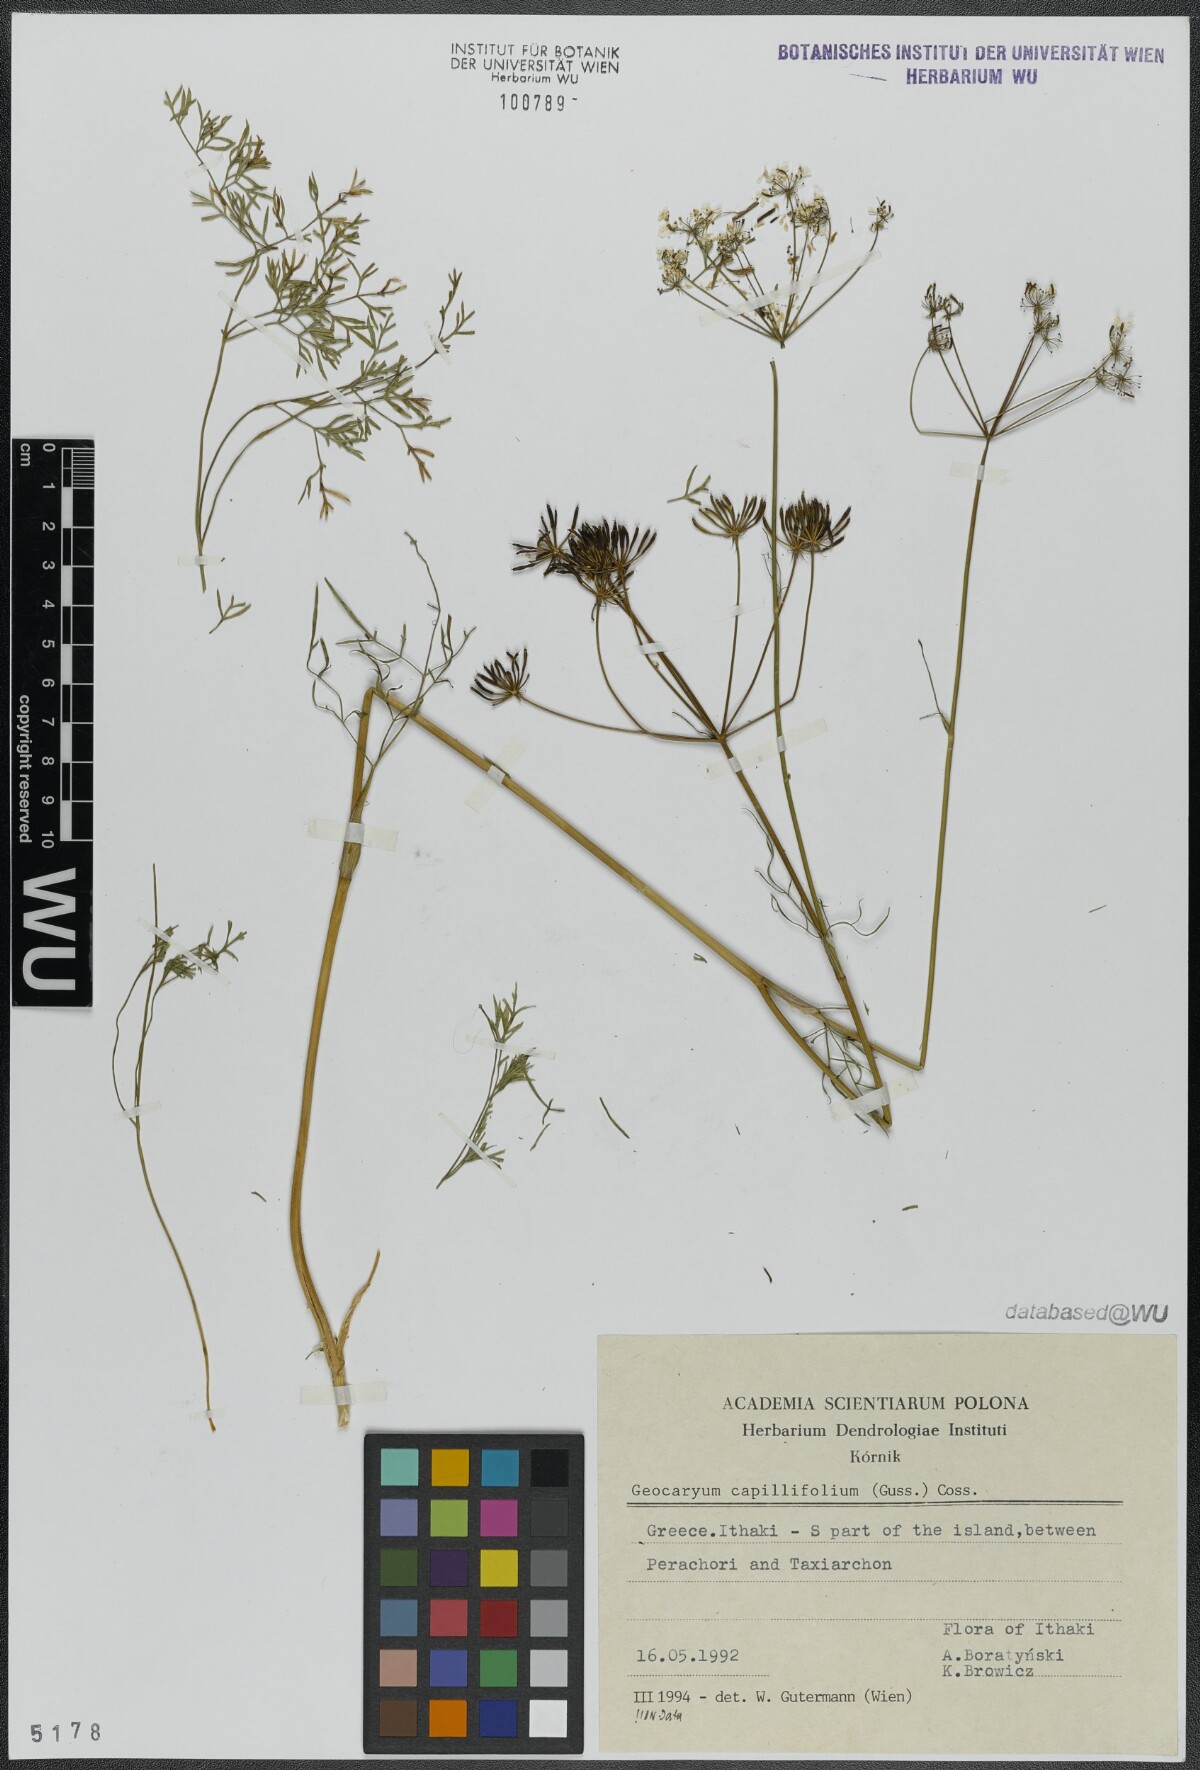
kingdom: Plantae
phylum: Tracheophyta
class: Magnoliopsida
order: Apiales
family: Apiaceae
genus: Geocaryum
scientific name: Geocaryum capillifolium
